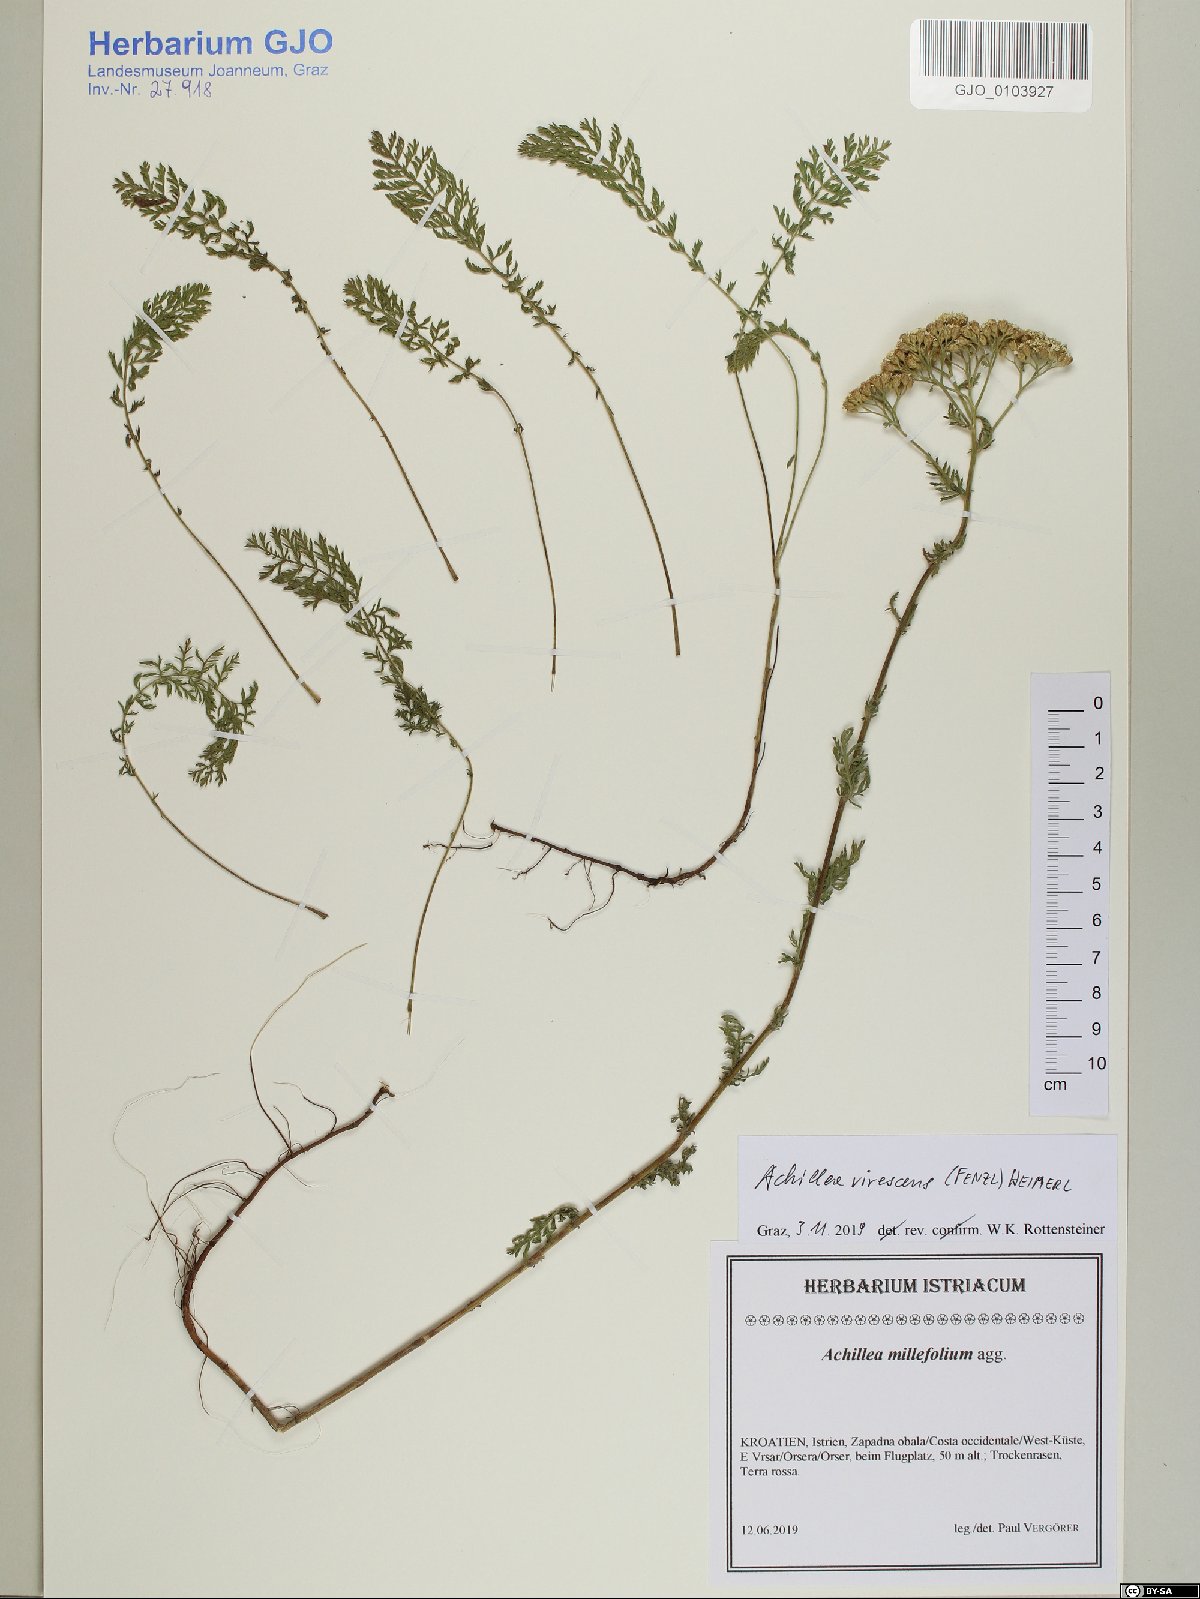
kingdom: Plantae
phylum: Tracheophyta
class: Magnoliopsida
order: Asterales
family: Asteraceae
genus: Achillea
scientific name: Achillea virescens
